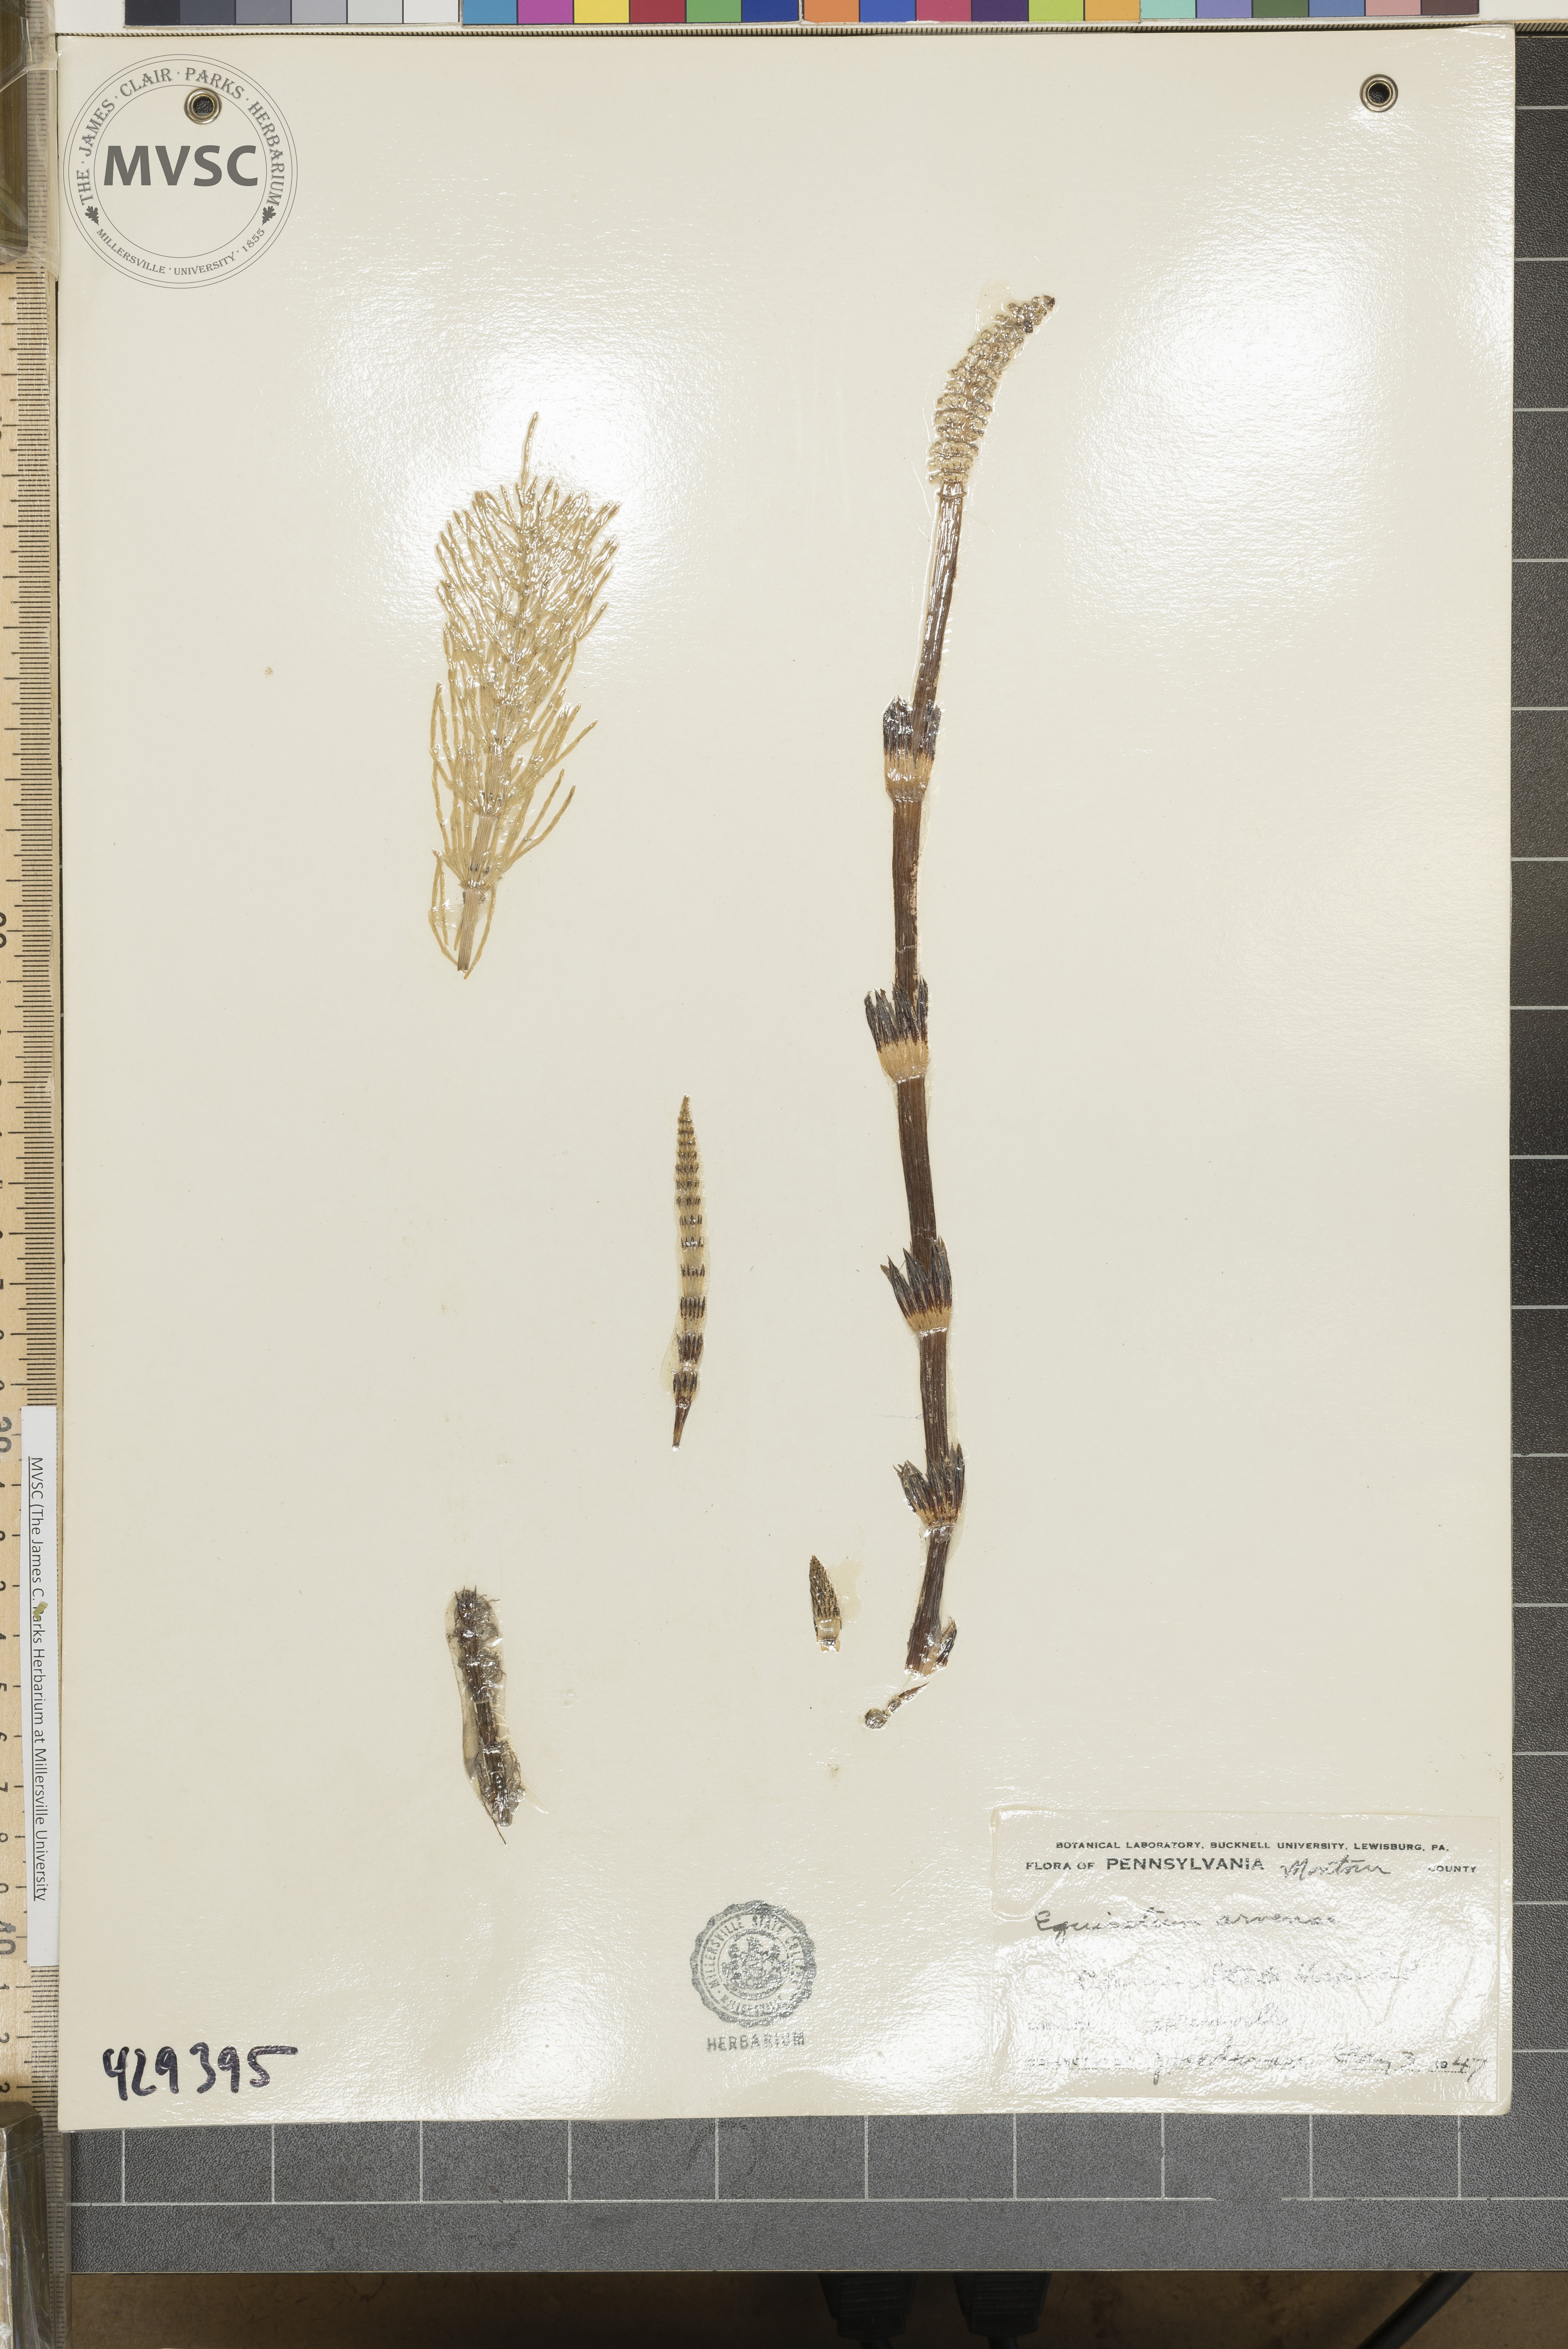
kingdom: Plantae
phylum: Tracheophyta
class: Polypodiopsida
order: Equisetales
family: Equisetaceae
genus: Equisetum
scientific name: Equisetum arvense
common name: Field horsetail
